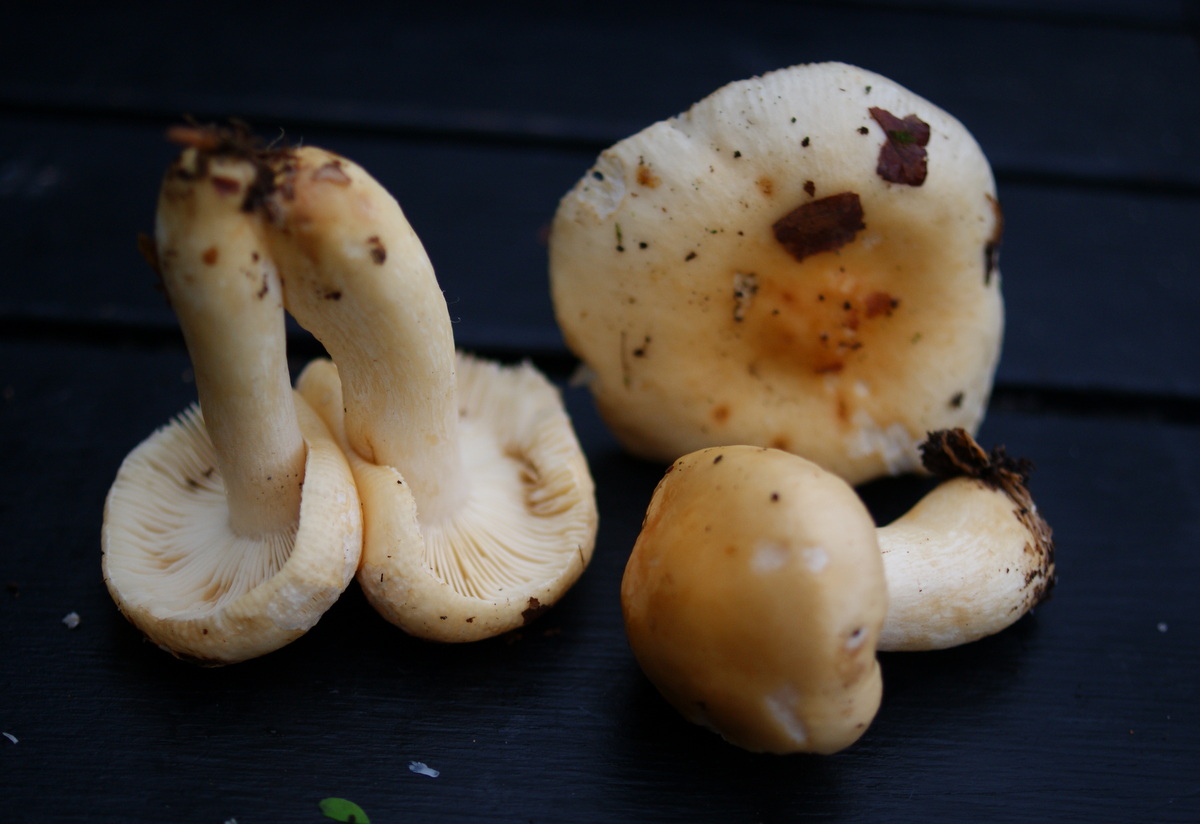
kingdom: Fungi
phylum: Basidiomycota
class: Agaricomycetes
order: Russulales
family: Russulaceae
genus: Russula
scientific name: Russula fellea
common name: galde-skørhat
